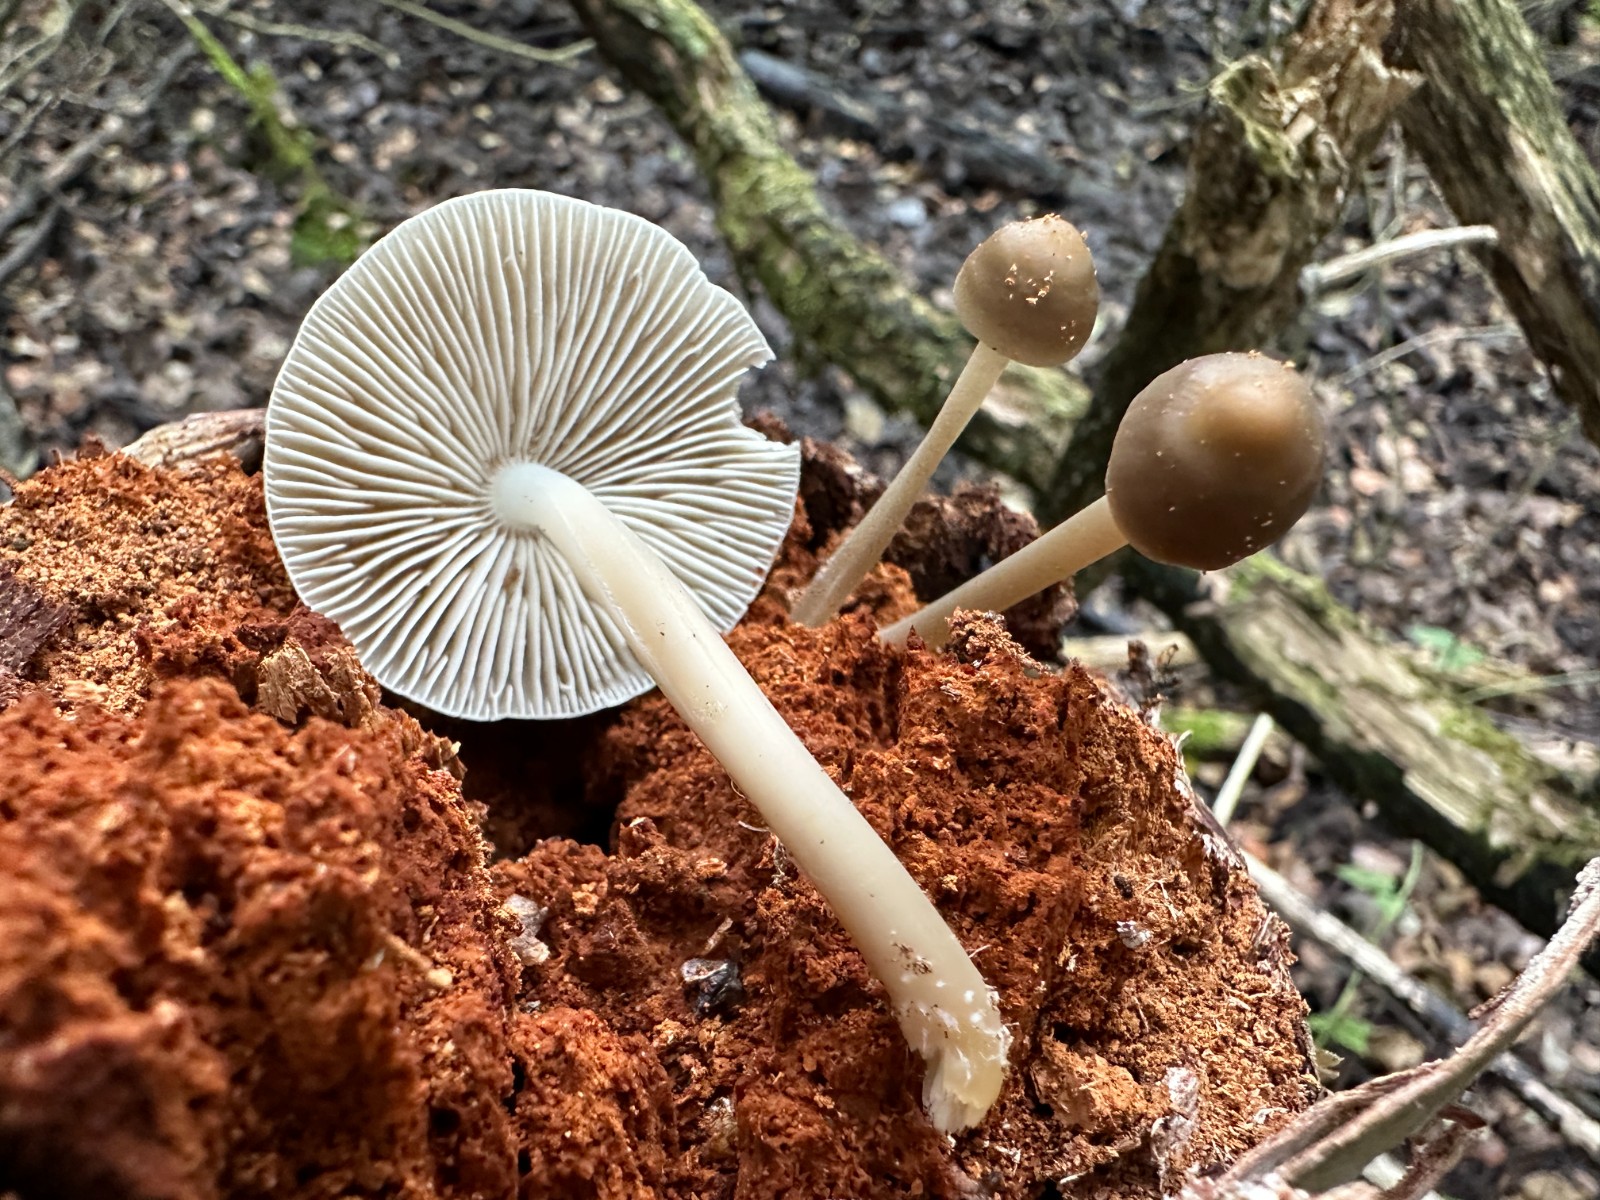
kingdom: Fungi
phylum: Basidiomycota
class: Agaricomycetes
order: Agaricales
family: Mycenaceae
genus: Mycena
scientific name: Mycena galericulata
